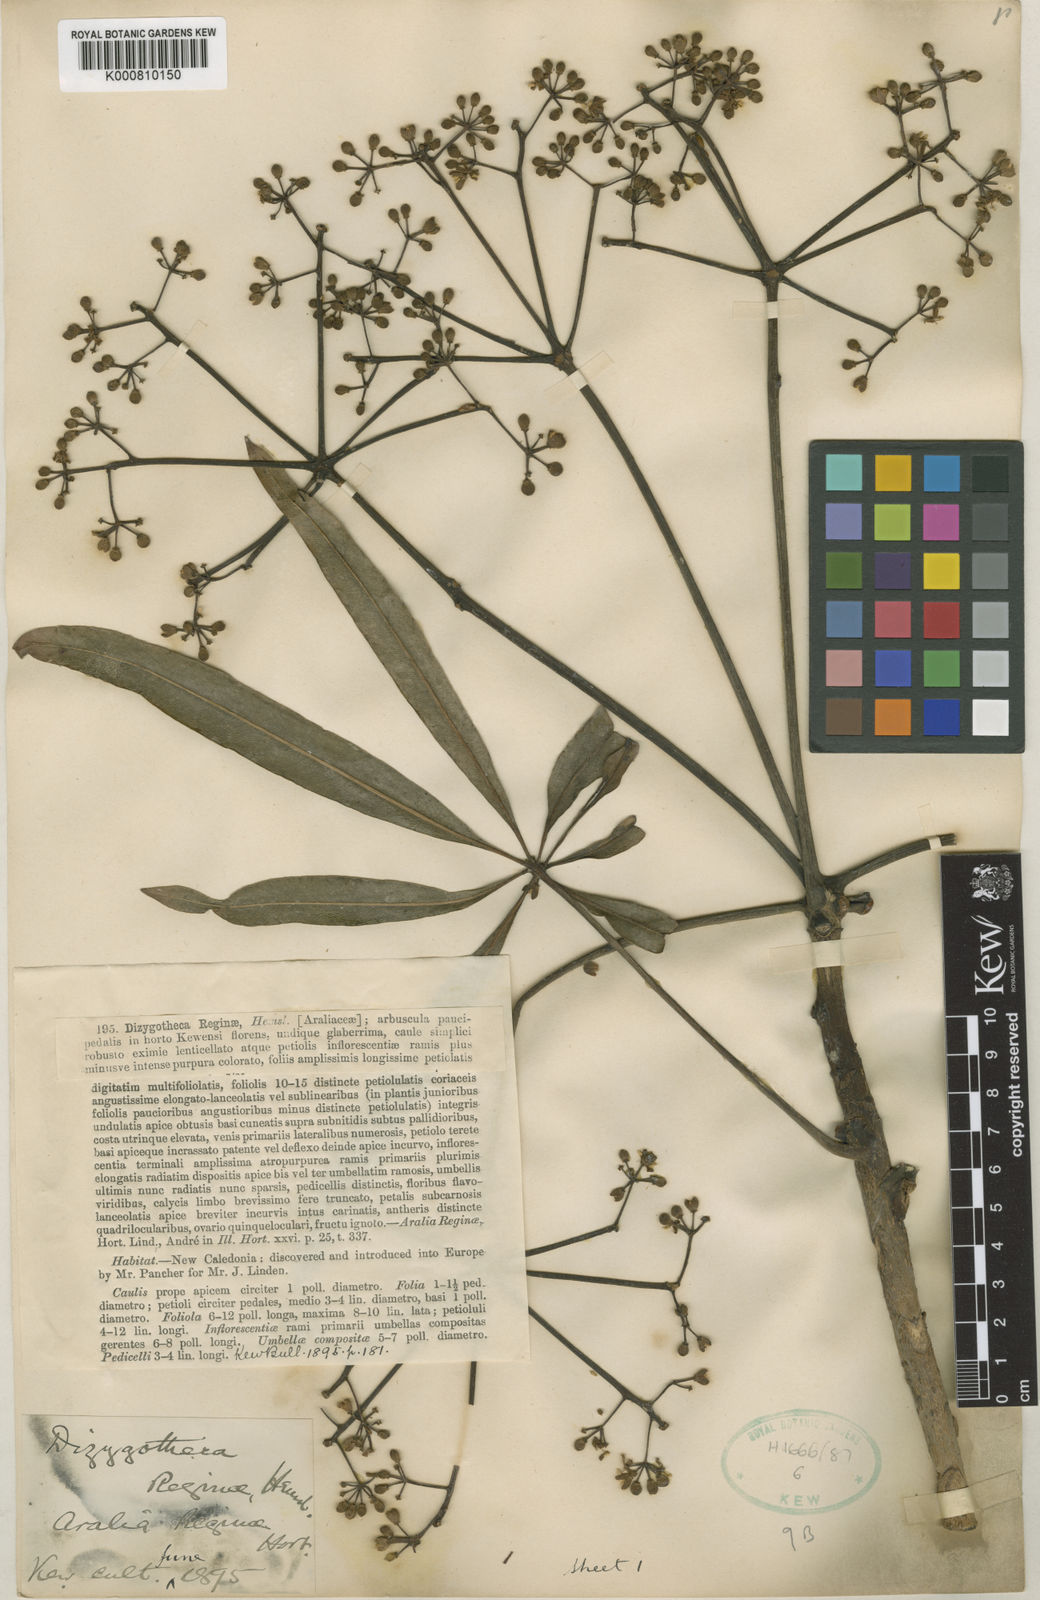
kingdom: Plantae
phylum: Tracheophyta
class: Magnoliopsida
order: Apiales
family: Araliaceae
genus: Plerandra
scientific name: Plerandra reginae
